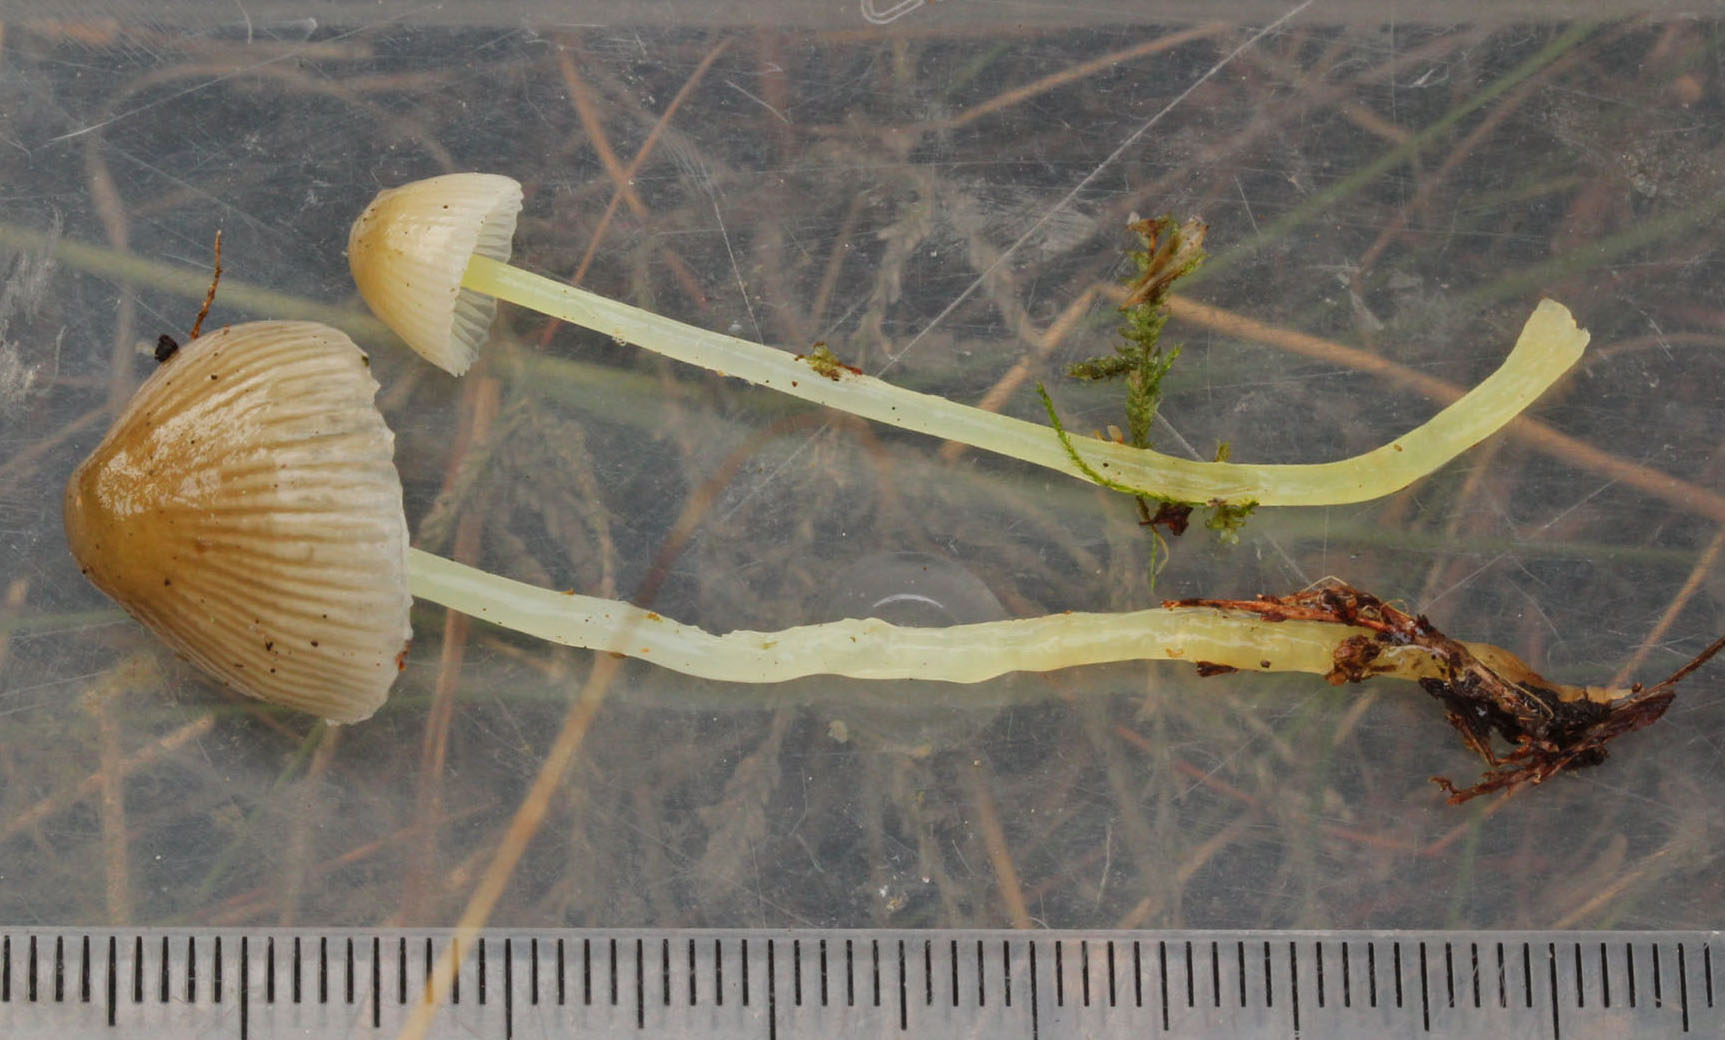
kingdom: Fungi
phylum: Basidiomycota
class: Agaricomycetes
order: Agaricales
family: Mycenaceae
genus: Mycena
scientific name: Mycena epipterygia
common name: gulstokket huesvamp
